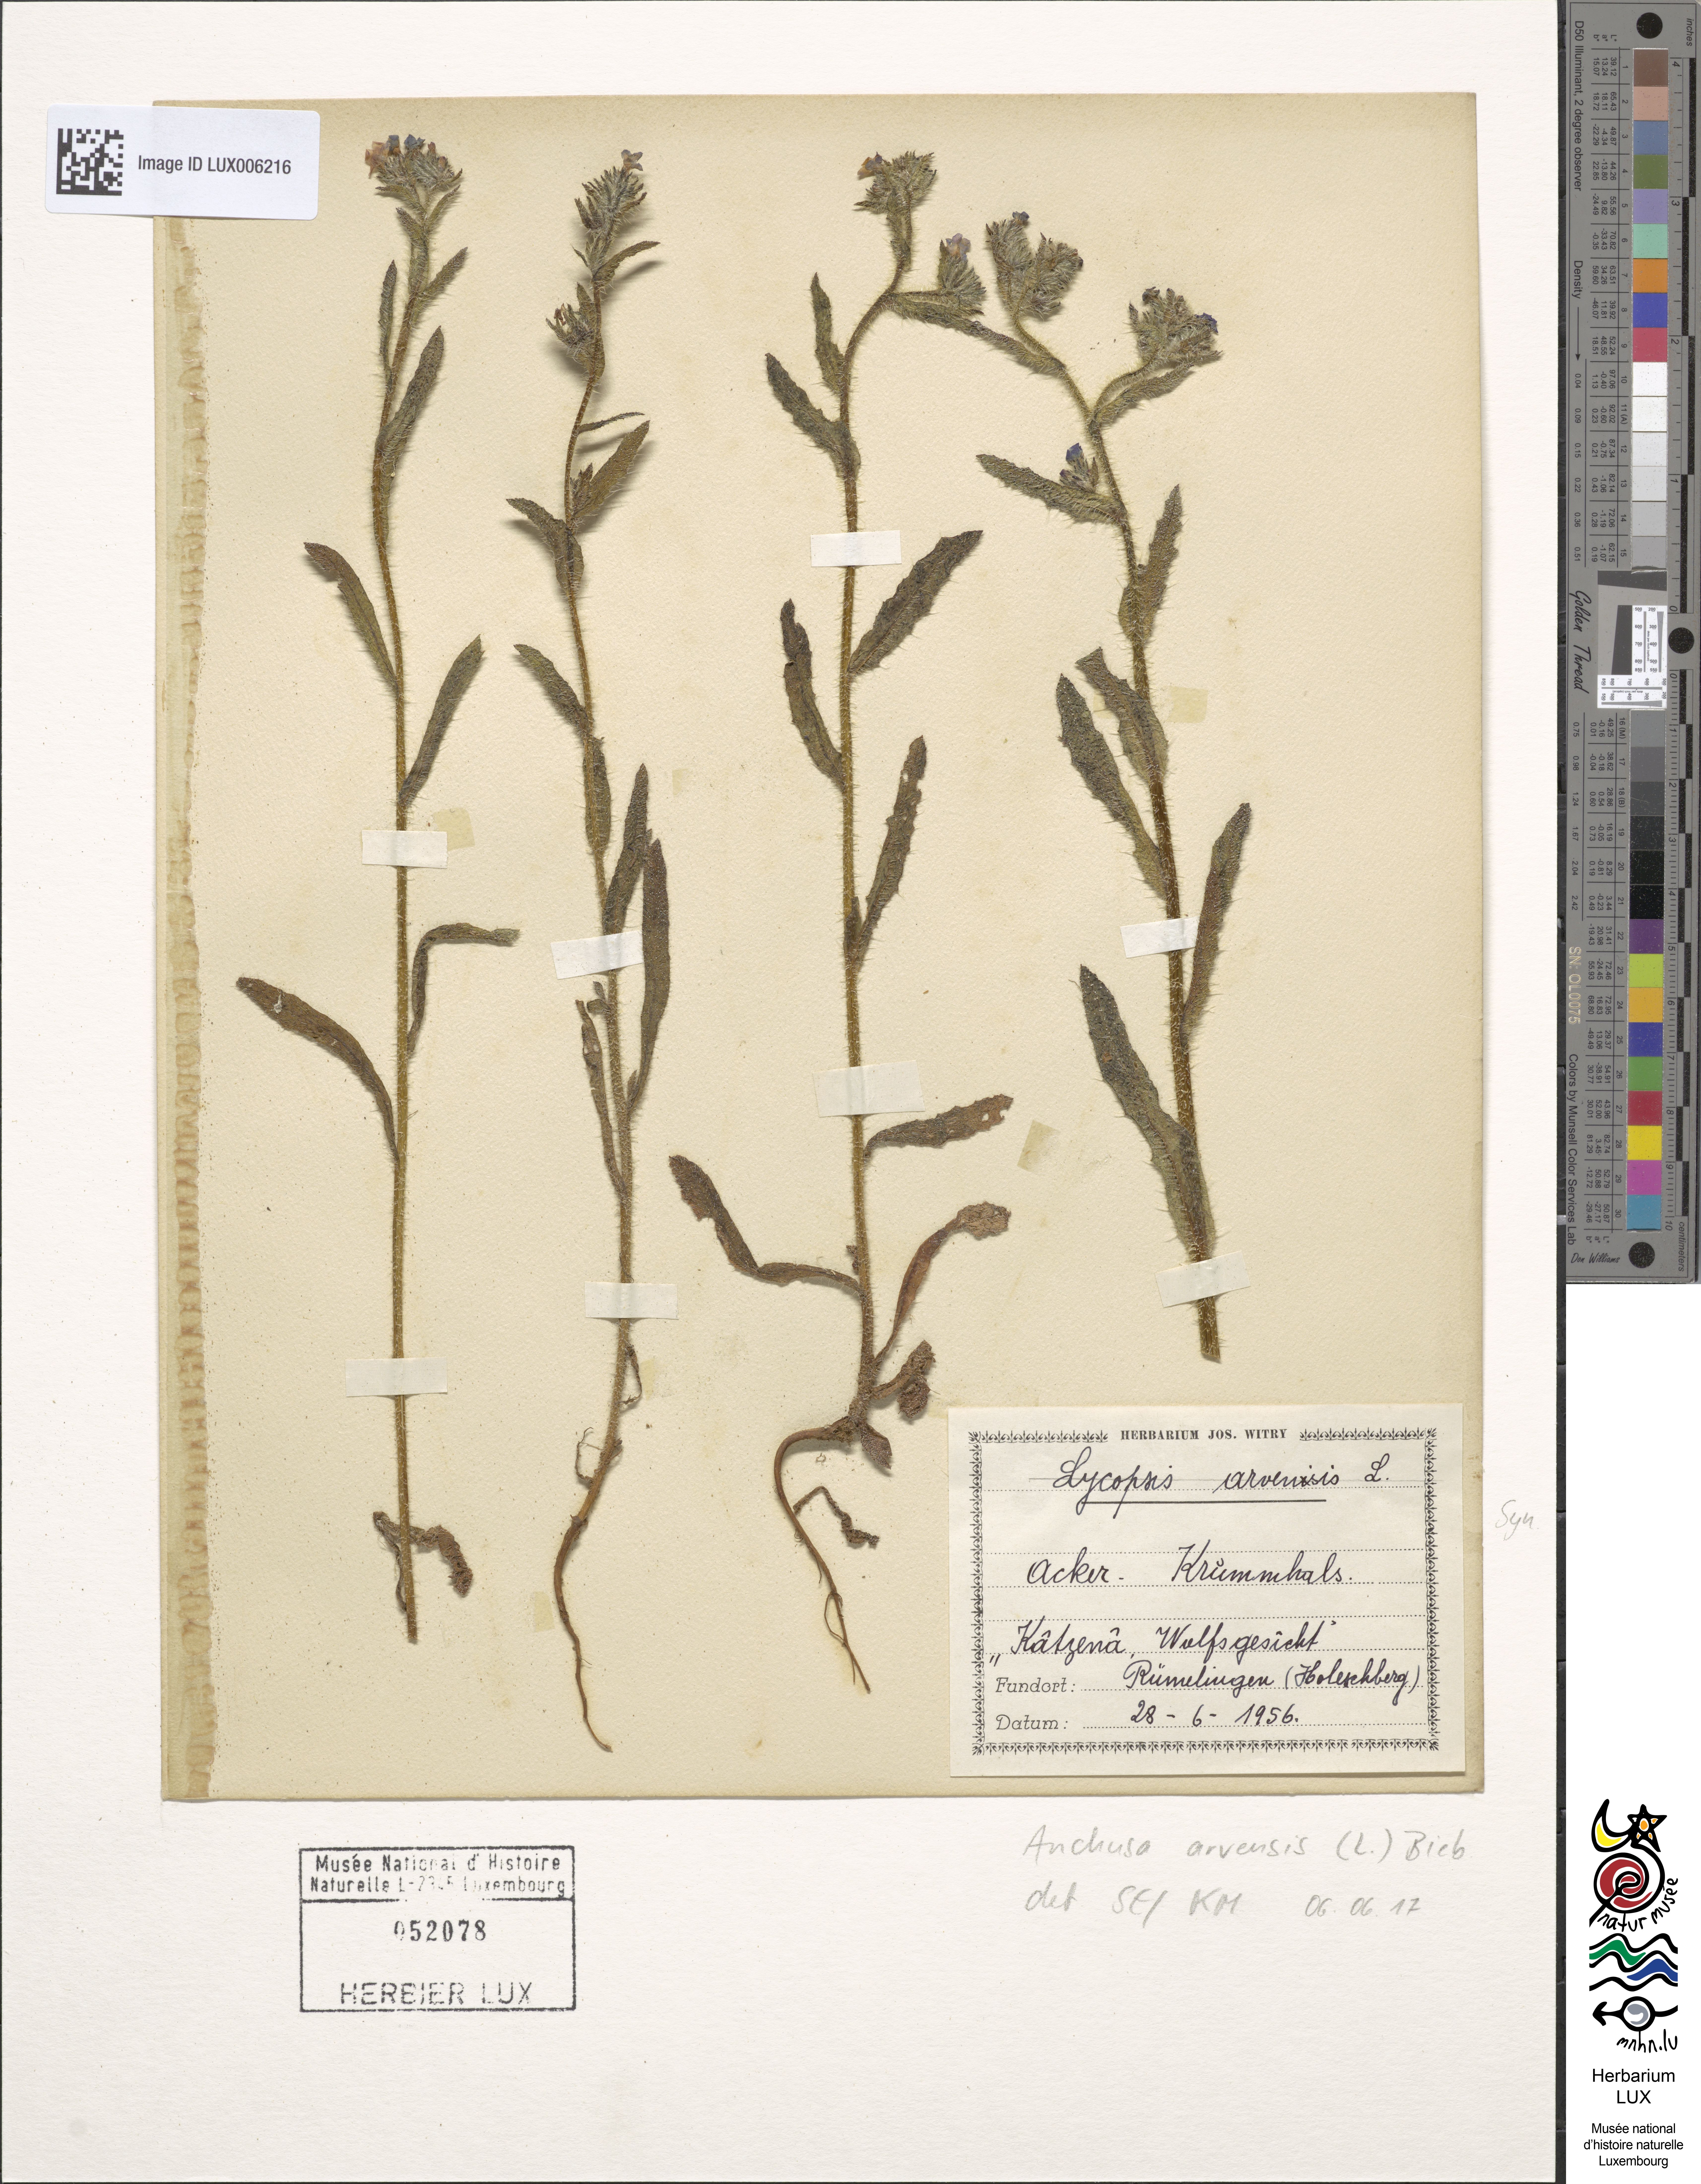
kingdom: Plantae
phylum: Tracheophyta
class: Magnoliopsida
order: Boraginales
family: Boraginaceae
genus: Lycopsis
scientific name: Lycopsis arvensis
